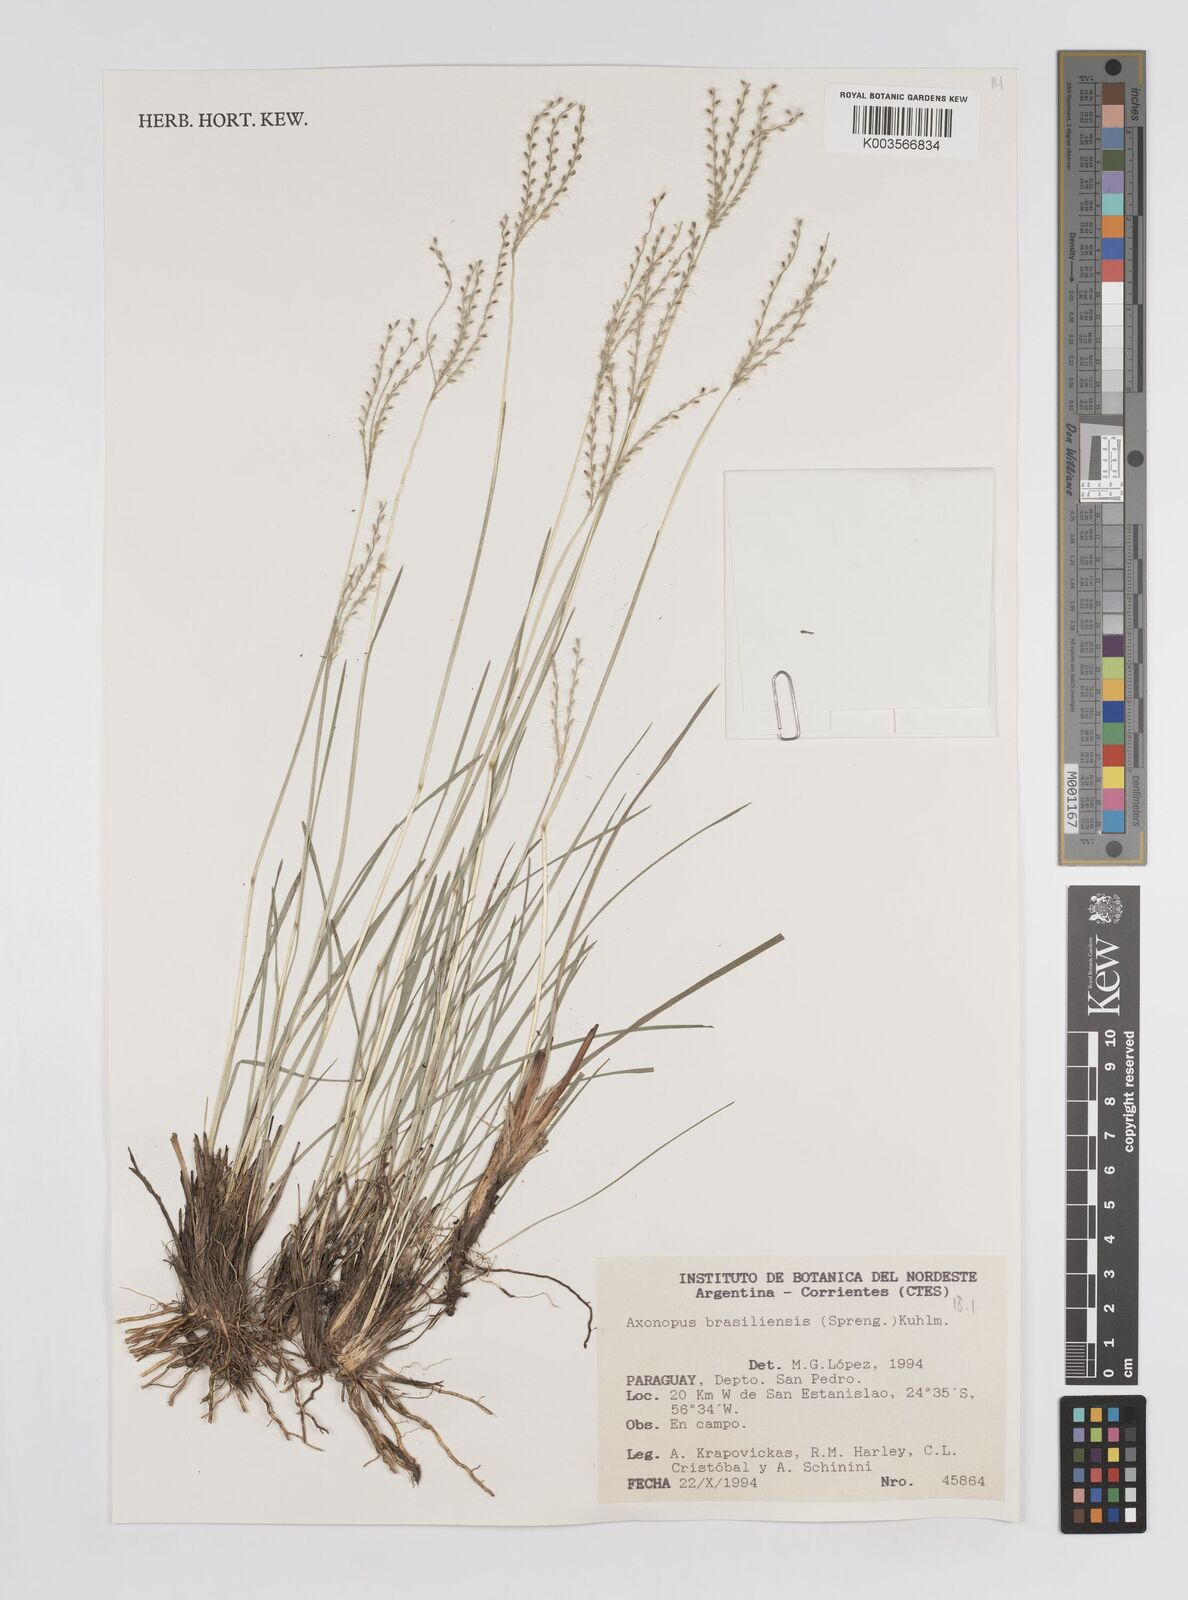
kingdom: Plantae
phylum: Tracheophyta
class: Liliopsida
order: Poales
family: Poaceae
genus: Axonopus
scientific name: Axonopus brasiliensis
